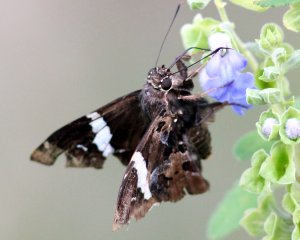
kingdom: Animalia
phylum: Arthropoda
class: Insecta
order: Lepidoptera
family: Hesperiidae
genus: Spathilepia
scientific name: Spathilepia clonius
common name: Falcate Skipper
